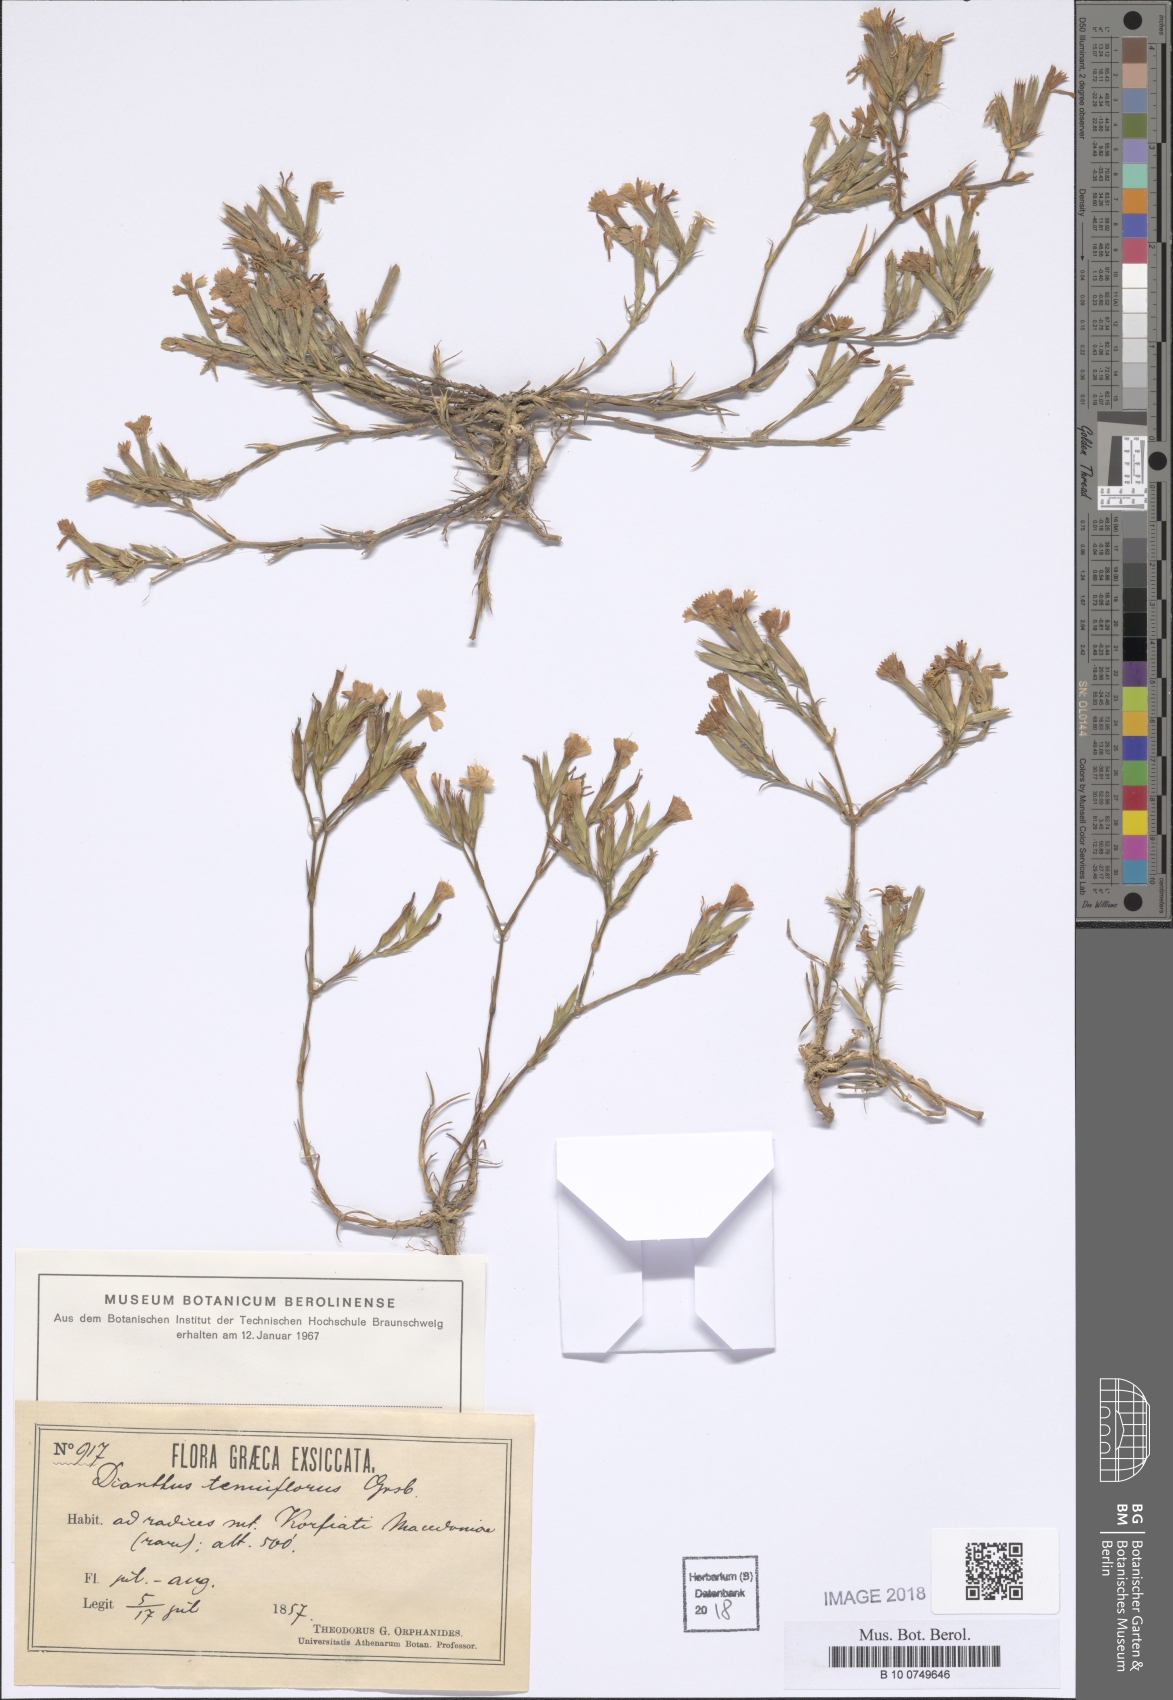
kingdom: Plantae
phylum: Tracheophyta
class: Magnoliopsida
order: Caryophyllales
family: Caryophyllaceae
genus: Dianthus
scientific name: Dianthus tenuiflorus
